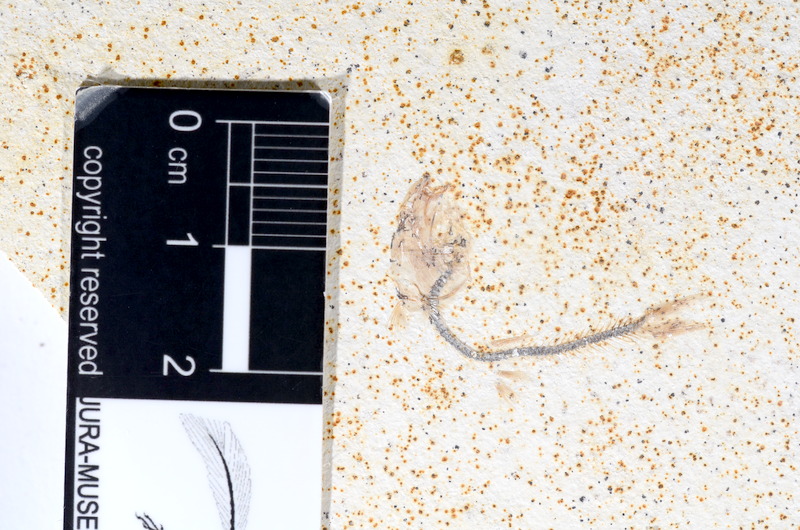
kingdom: Animalia
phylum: Chordata
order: Salmoniformes
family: Orthogonikleithridae
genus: Orthogonikleithrus
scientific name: Orthogonikleithrus hoelli
